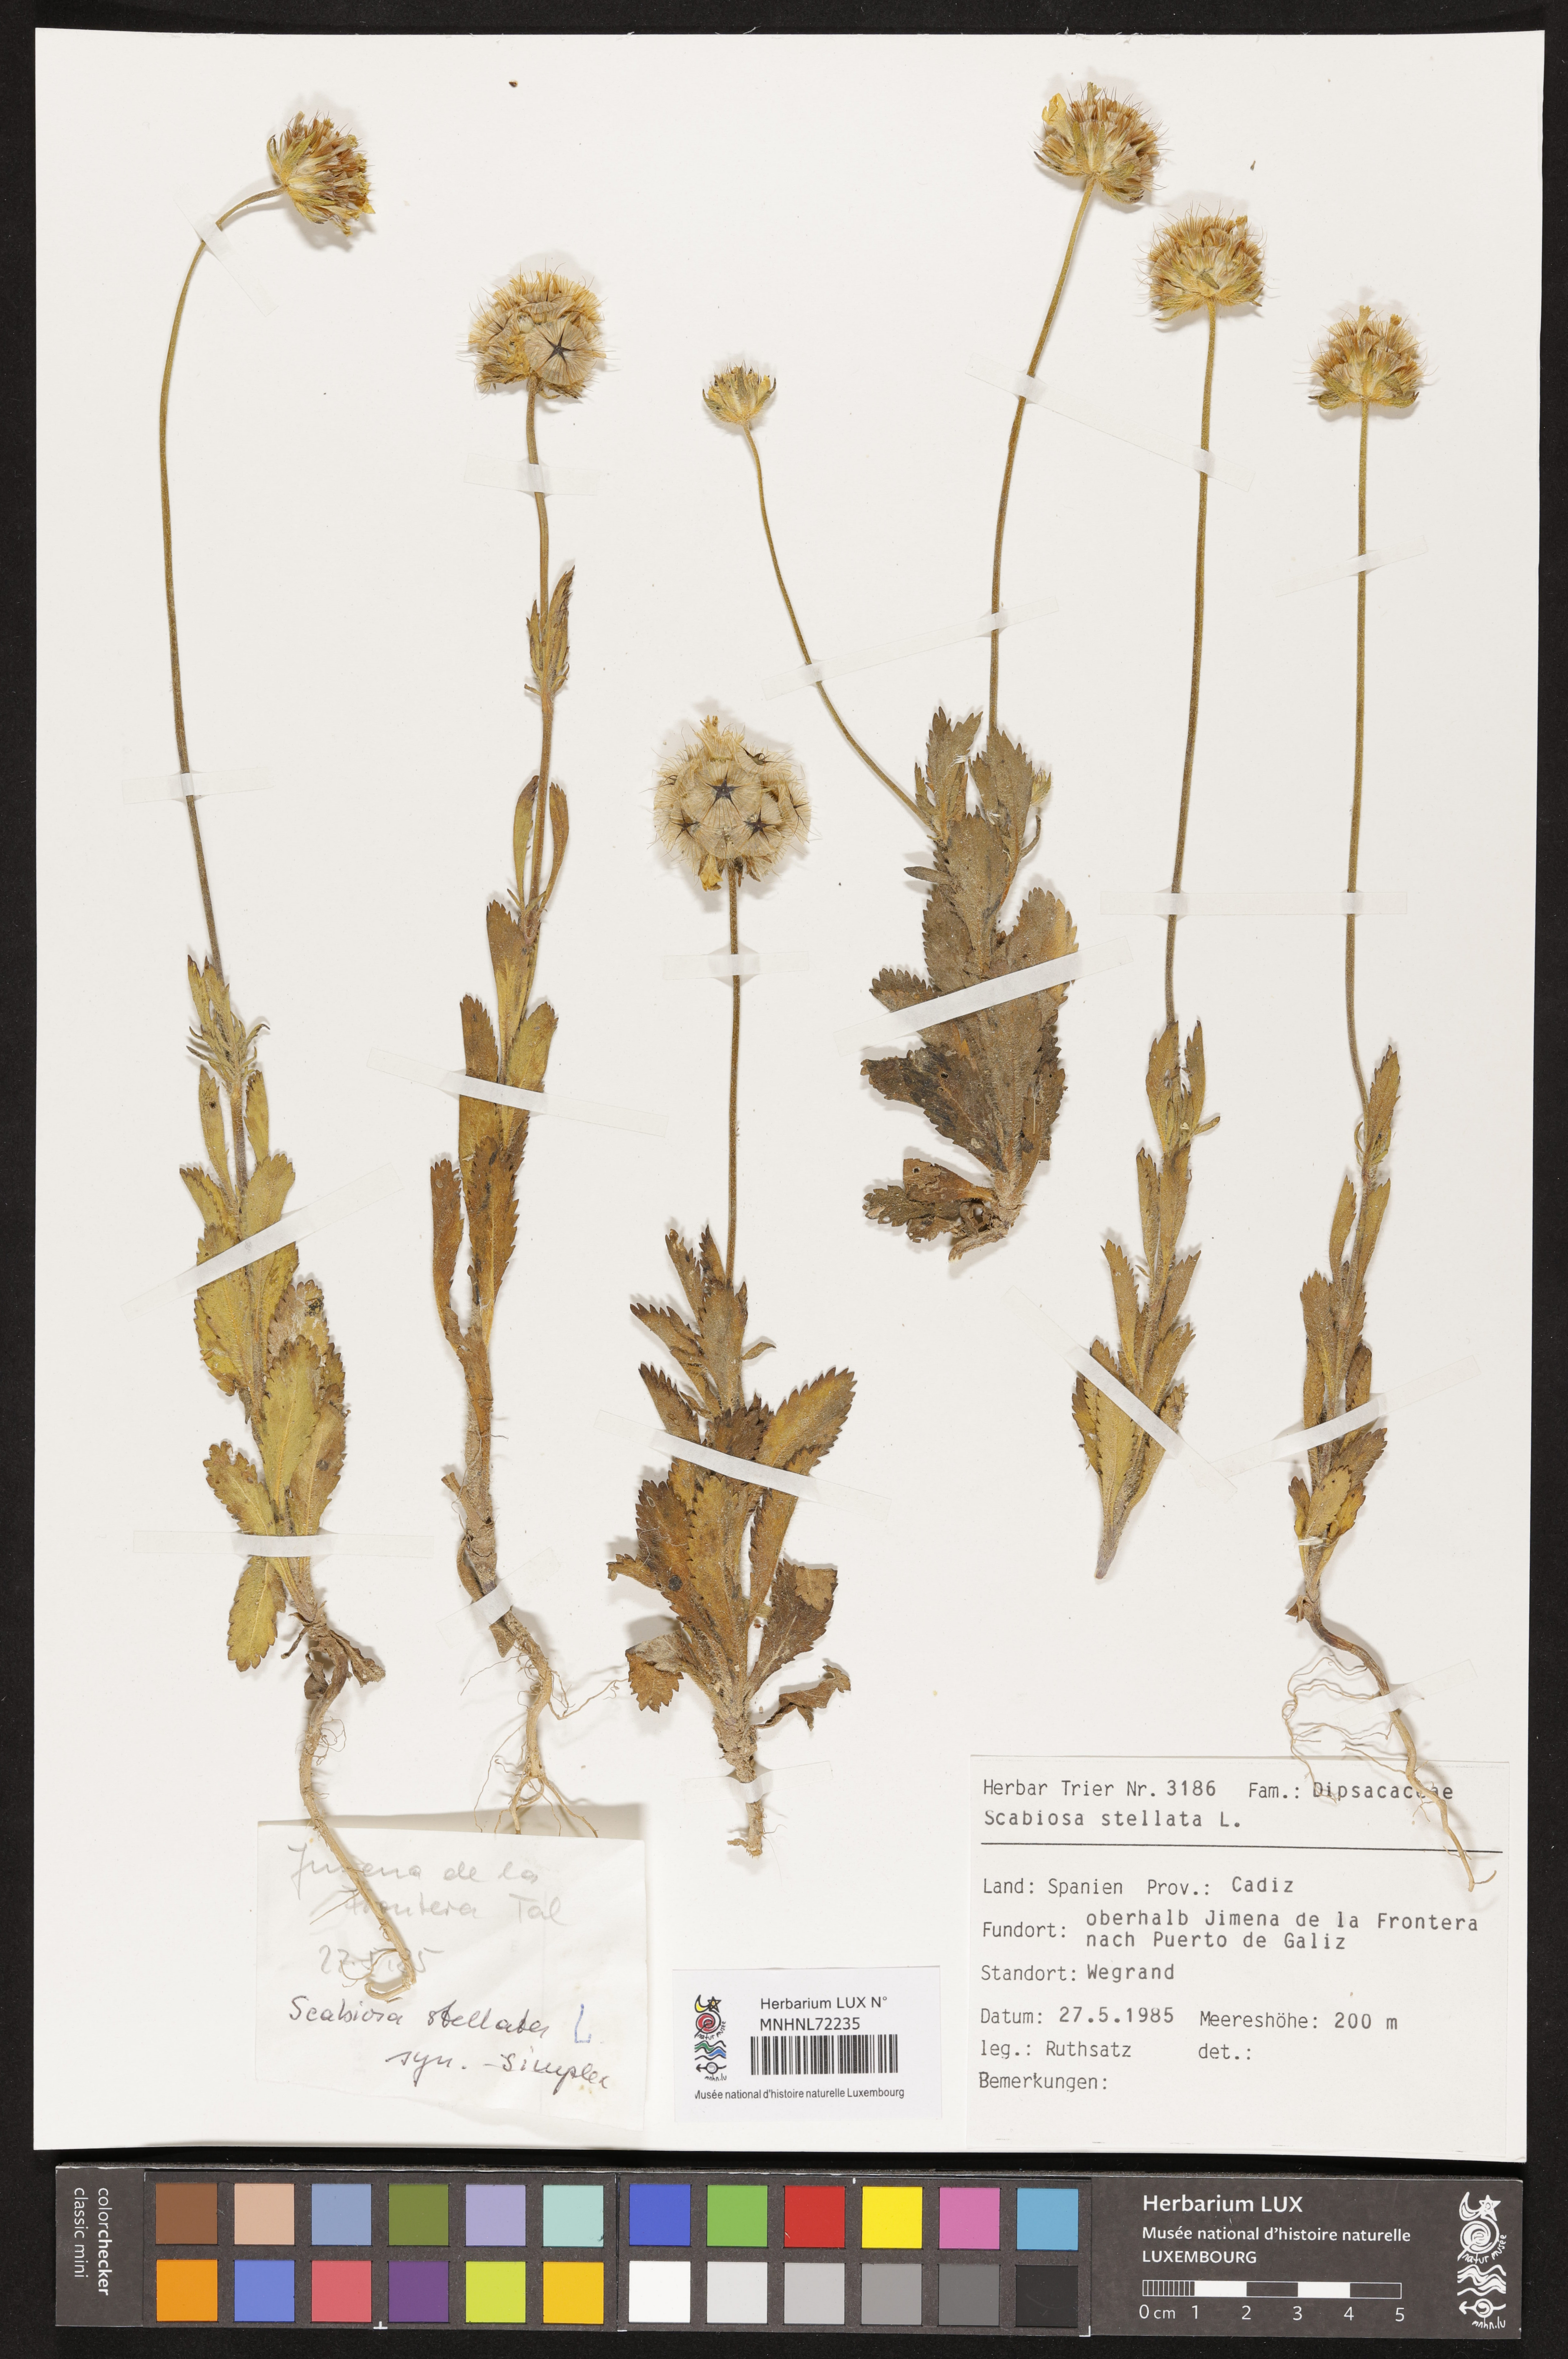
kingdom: Plantae
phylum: Tracheophyta
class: Magnoliopsida
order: Dipsacales
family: Caprifoliaceae
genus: Lomelosia
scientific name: Lomelosia stellata
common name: Teasel
